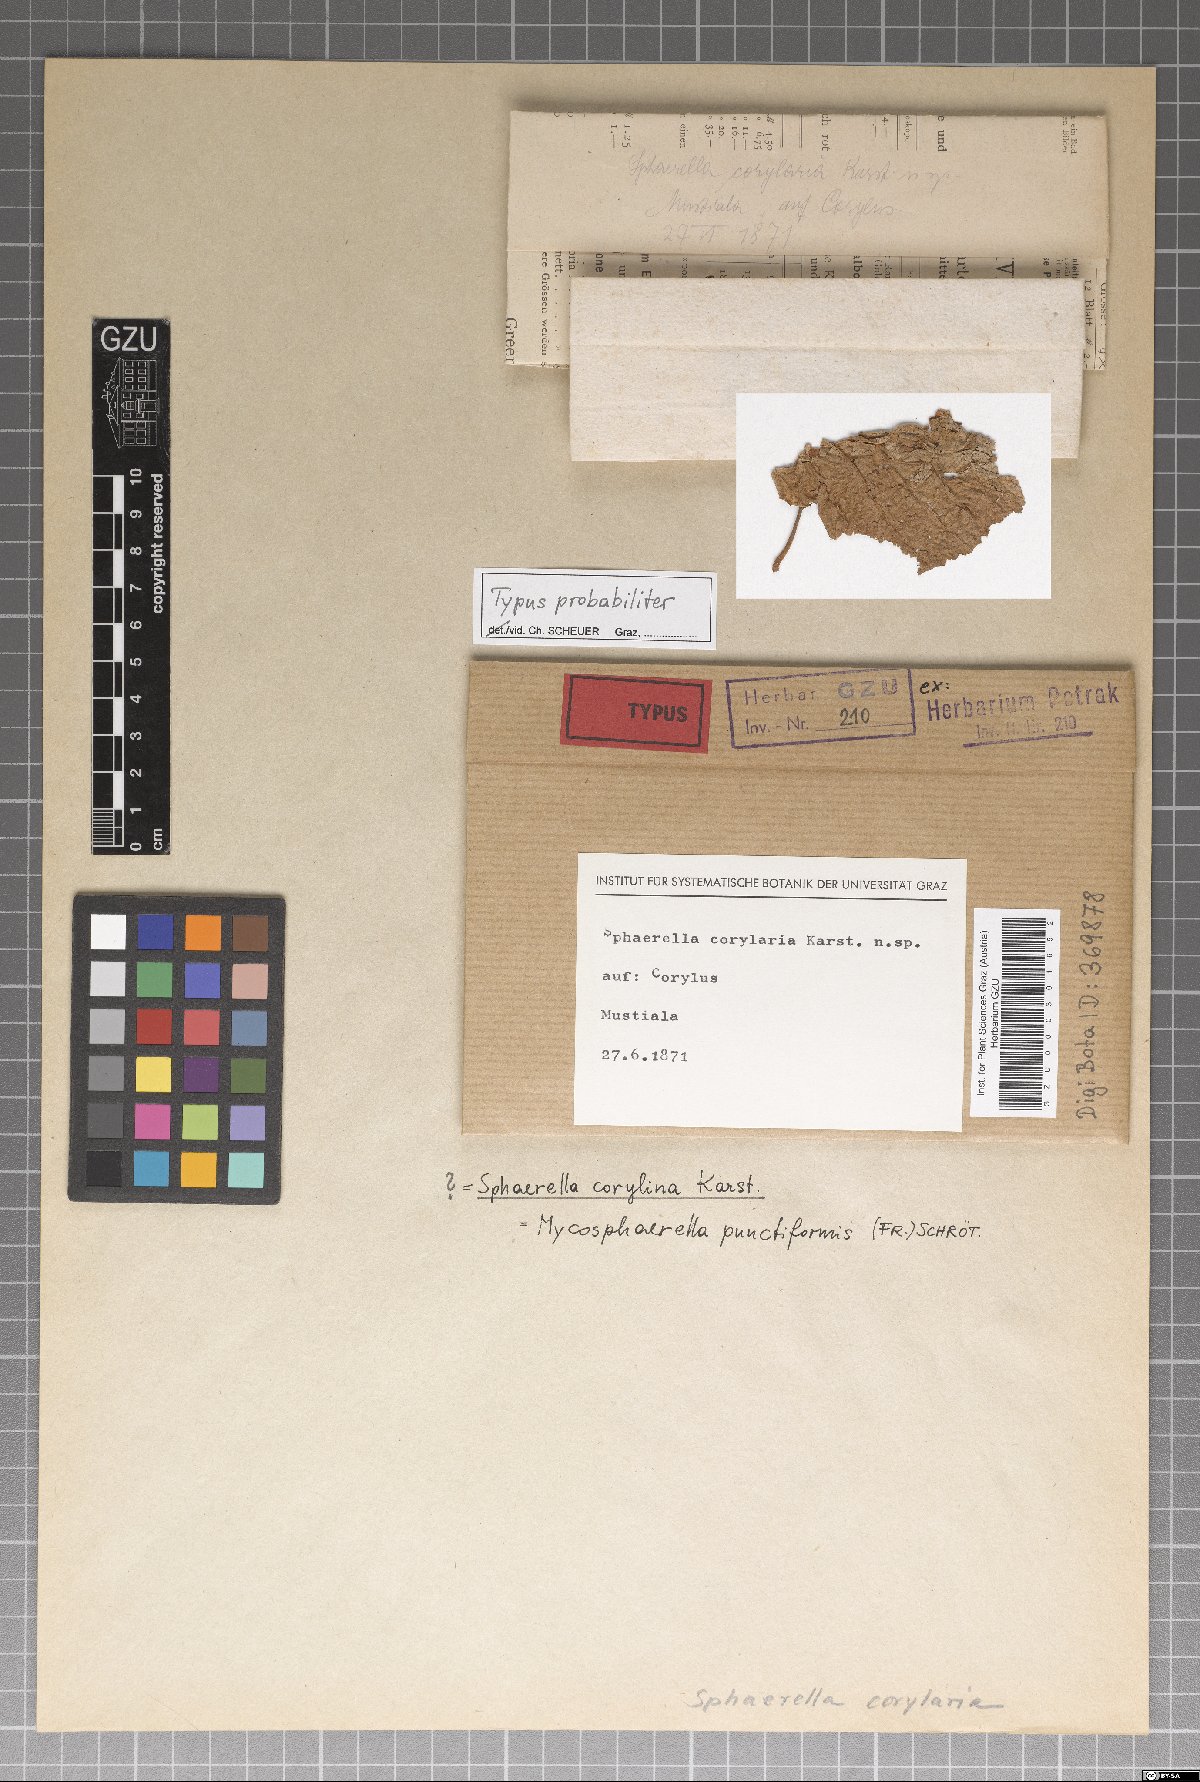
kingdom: Fungi
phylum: Ascomycota
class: Dothideomycetes
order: Mycosphaerellales
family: Mycosphaerellaceae
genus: Mycosphaerella
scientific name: Mycosphaerella punctiformis
